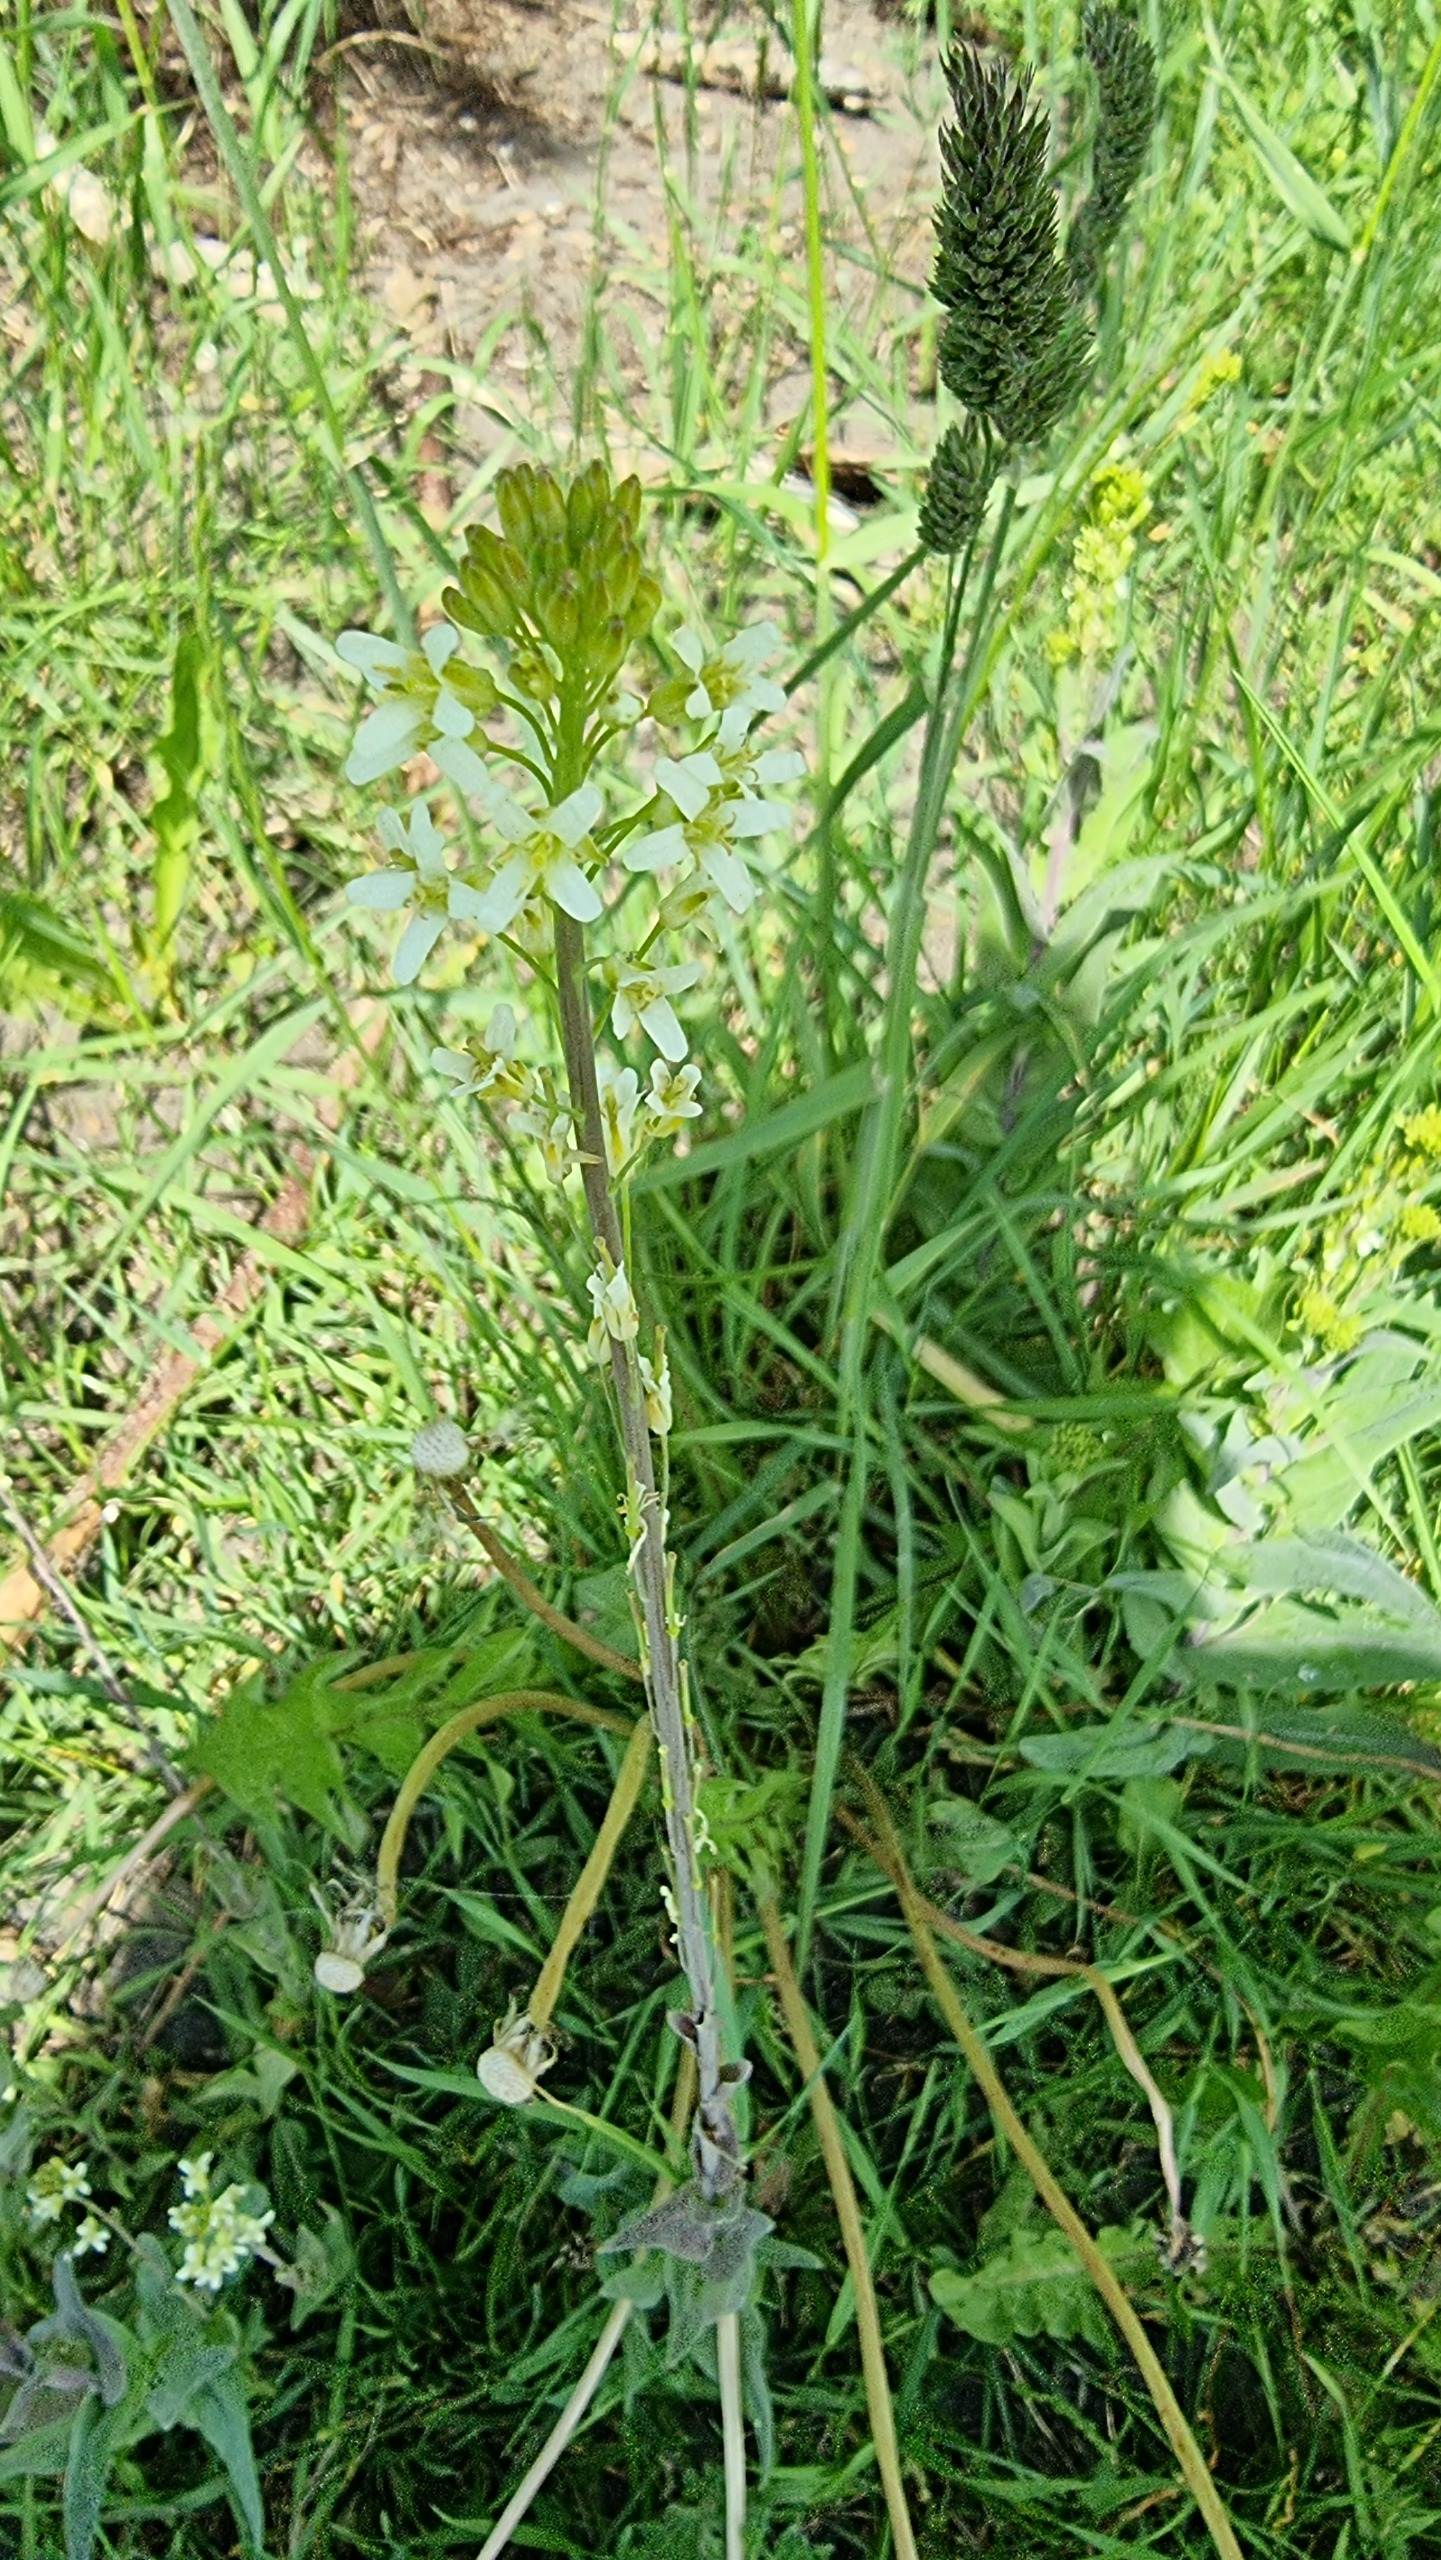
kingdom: Plantae
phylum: Tracheophyta
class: Magnoliopsida
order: Brassicales
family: Brassicaceae
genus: Turritis
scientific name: Turritis glabra
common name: Tårnurt
